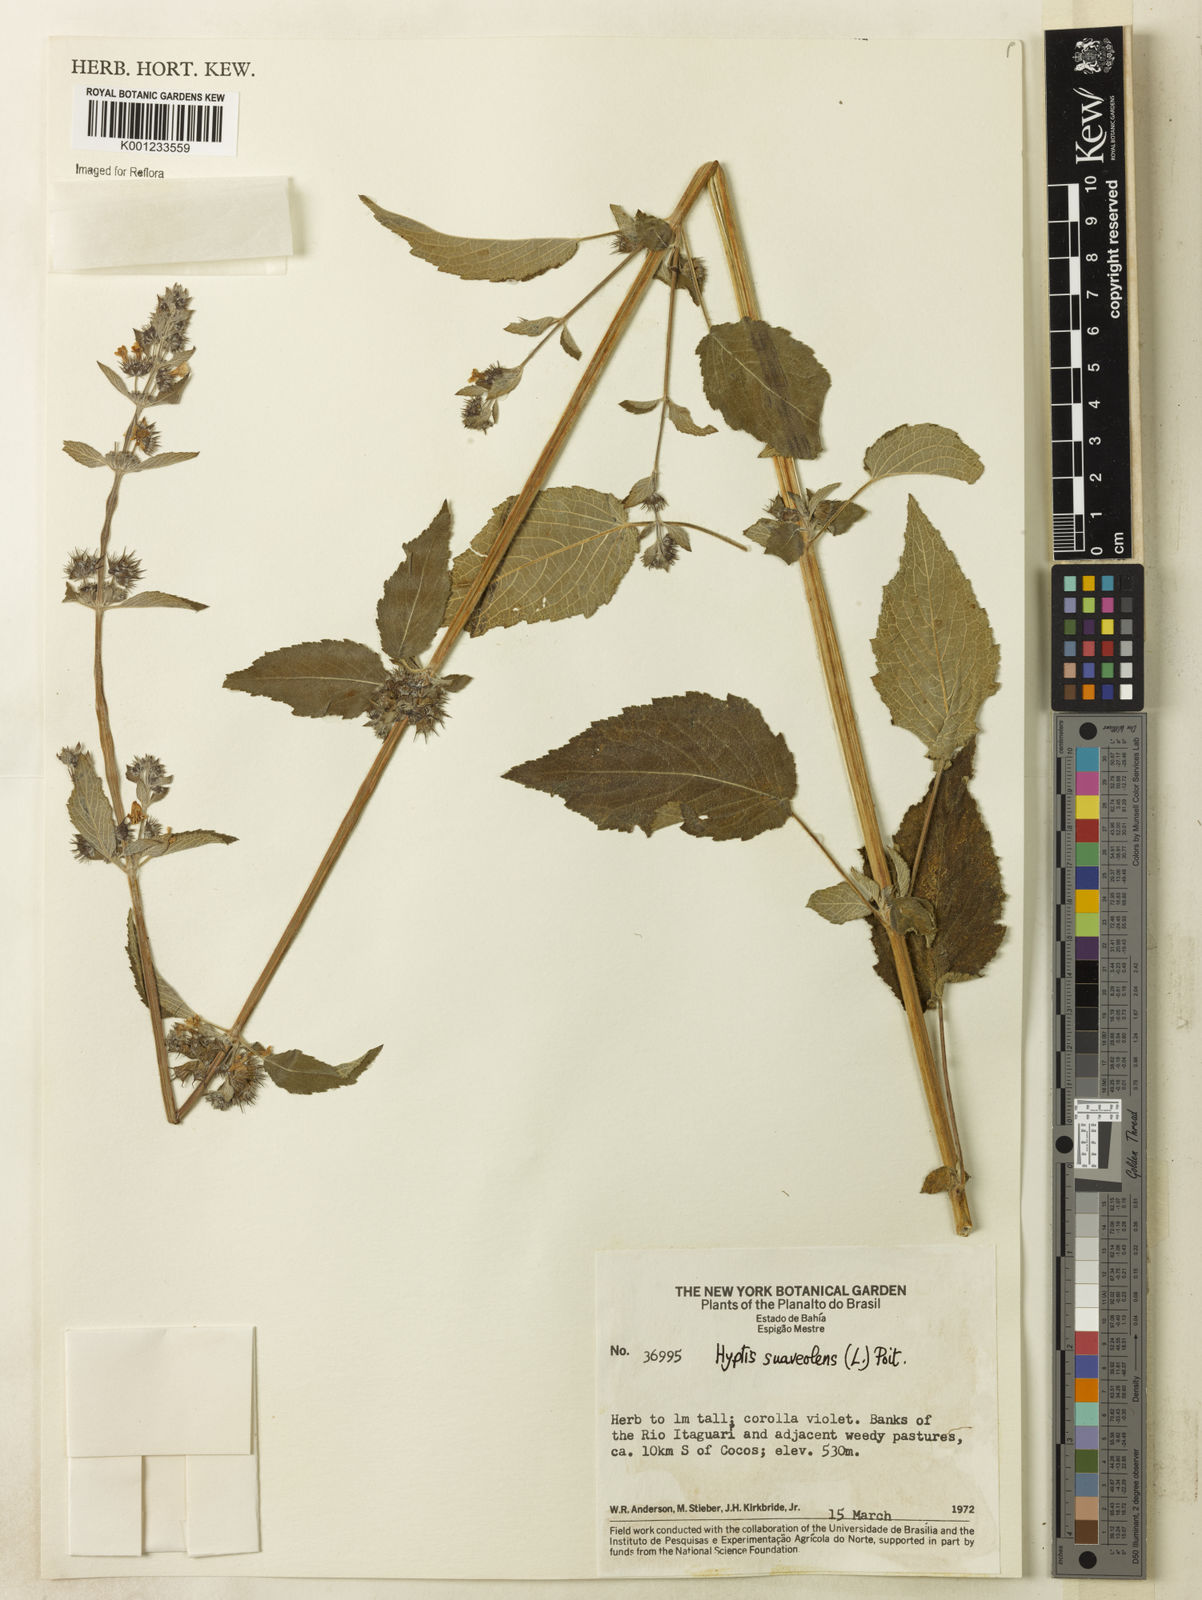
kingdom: Plantae
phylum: Tracheophyta
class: Magnoliopsida
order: Lamiales
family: Lamiaceae
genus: Mesosphaerum
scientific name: Mesosphaerum suaveolens
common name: Pignut
